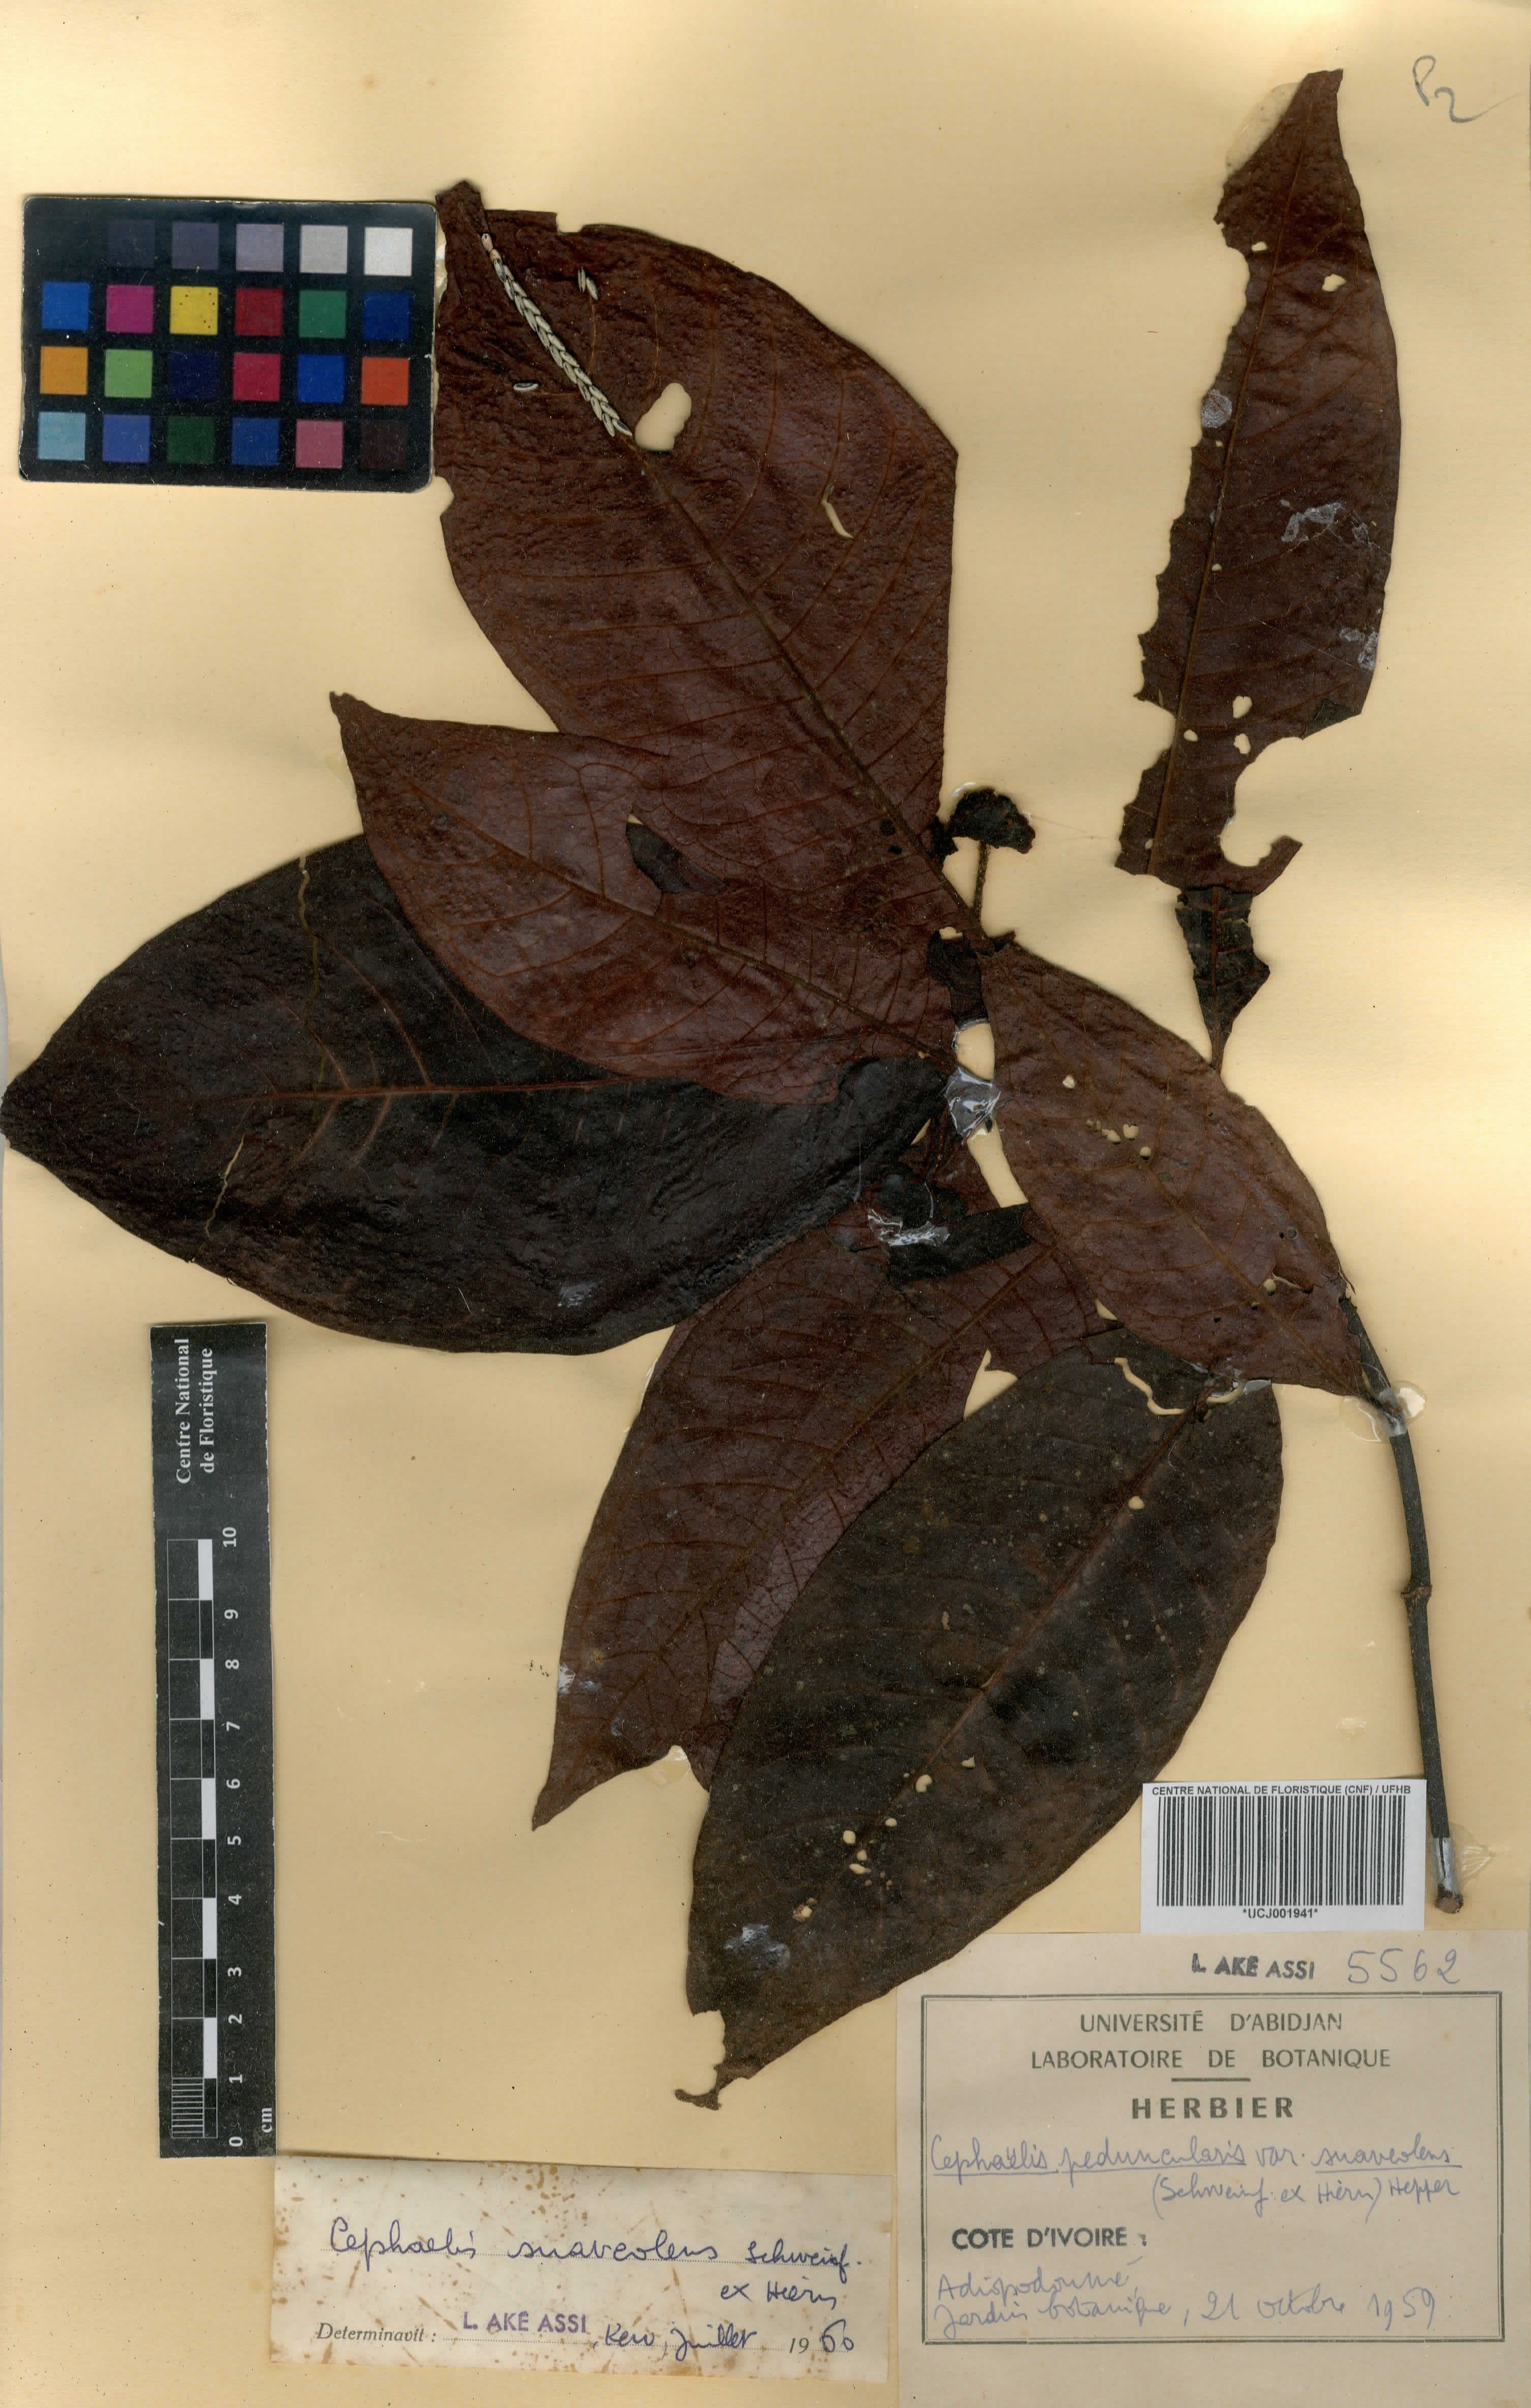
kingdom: Plantae
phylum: Tracheophyta
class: Magnoliopsida
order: Gentianales
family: Rubiaceae
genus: Psychotria
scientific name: Psychotria peduncularis
